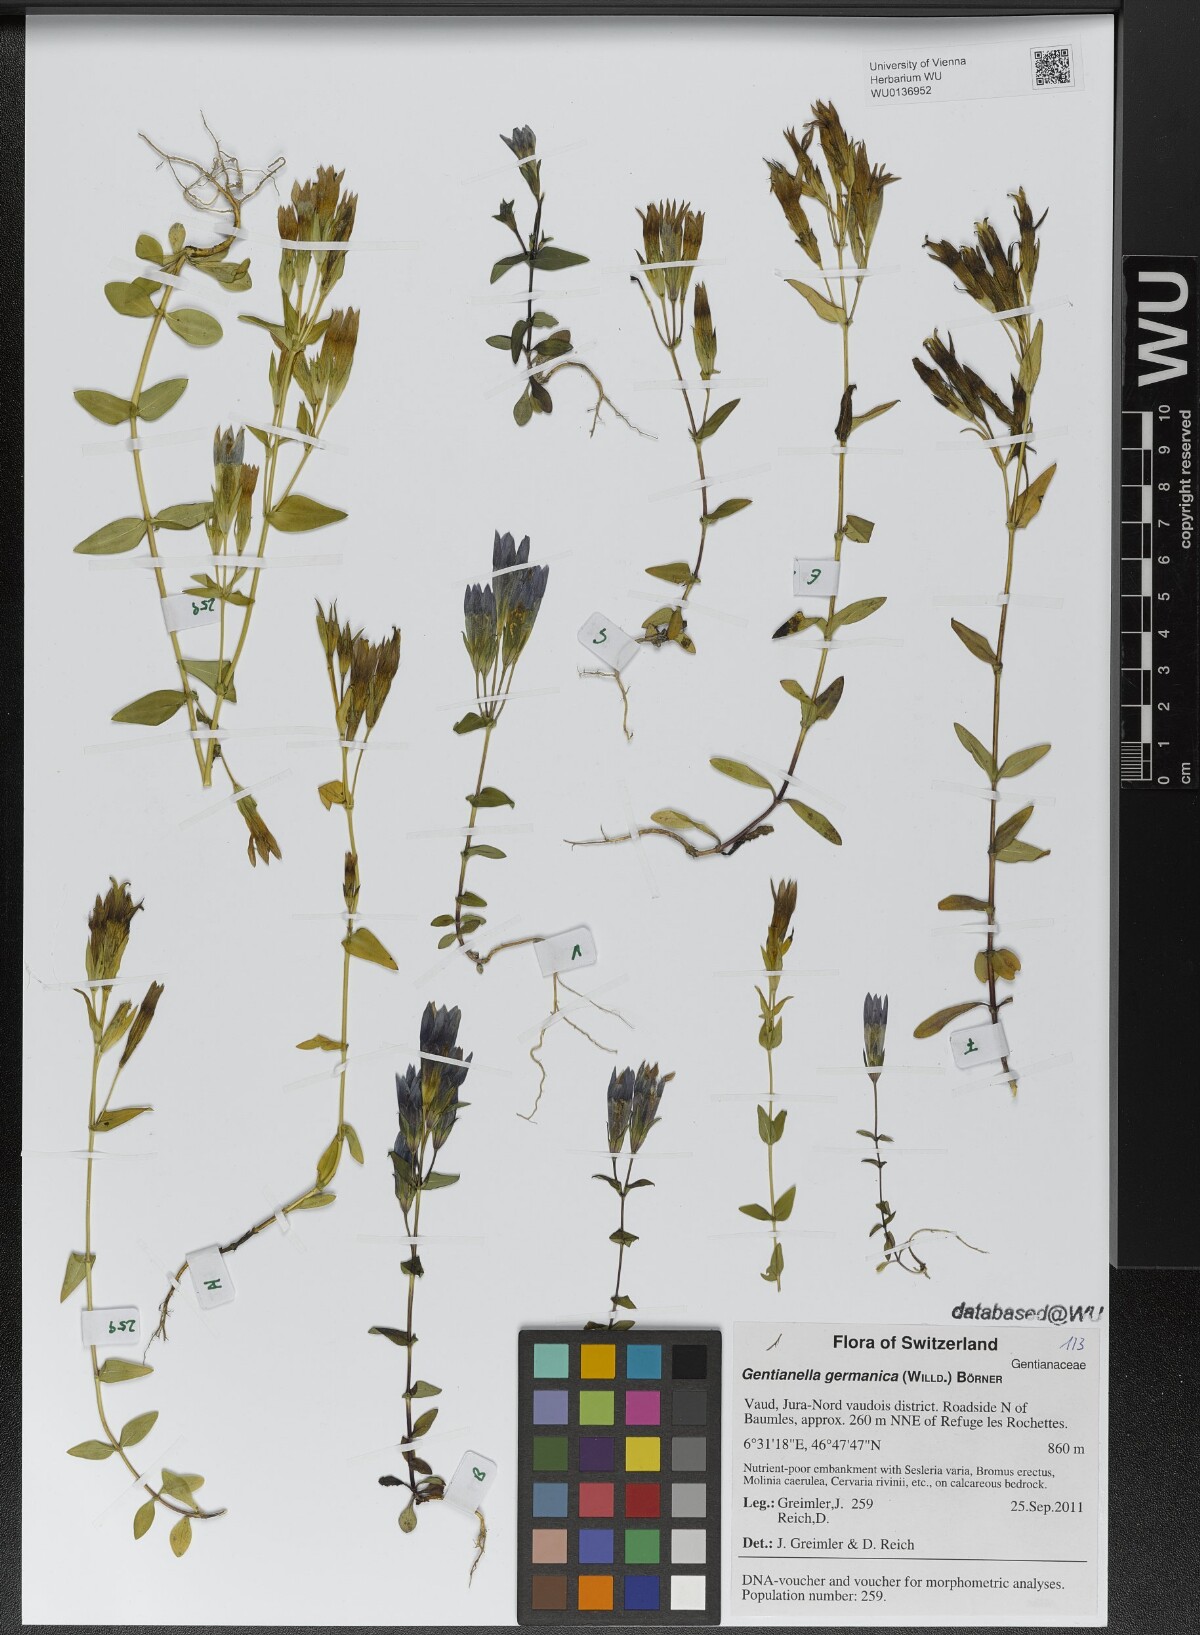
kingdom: Plantae
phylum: Tracheophyta
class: Magnoliopsida
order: Gentianales
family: Gentianaceae
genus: Gentianella
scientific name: Gentianella germanica
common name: Chiltern-gentian
